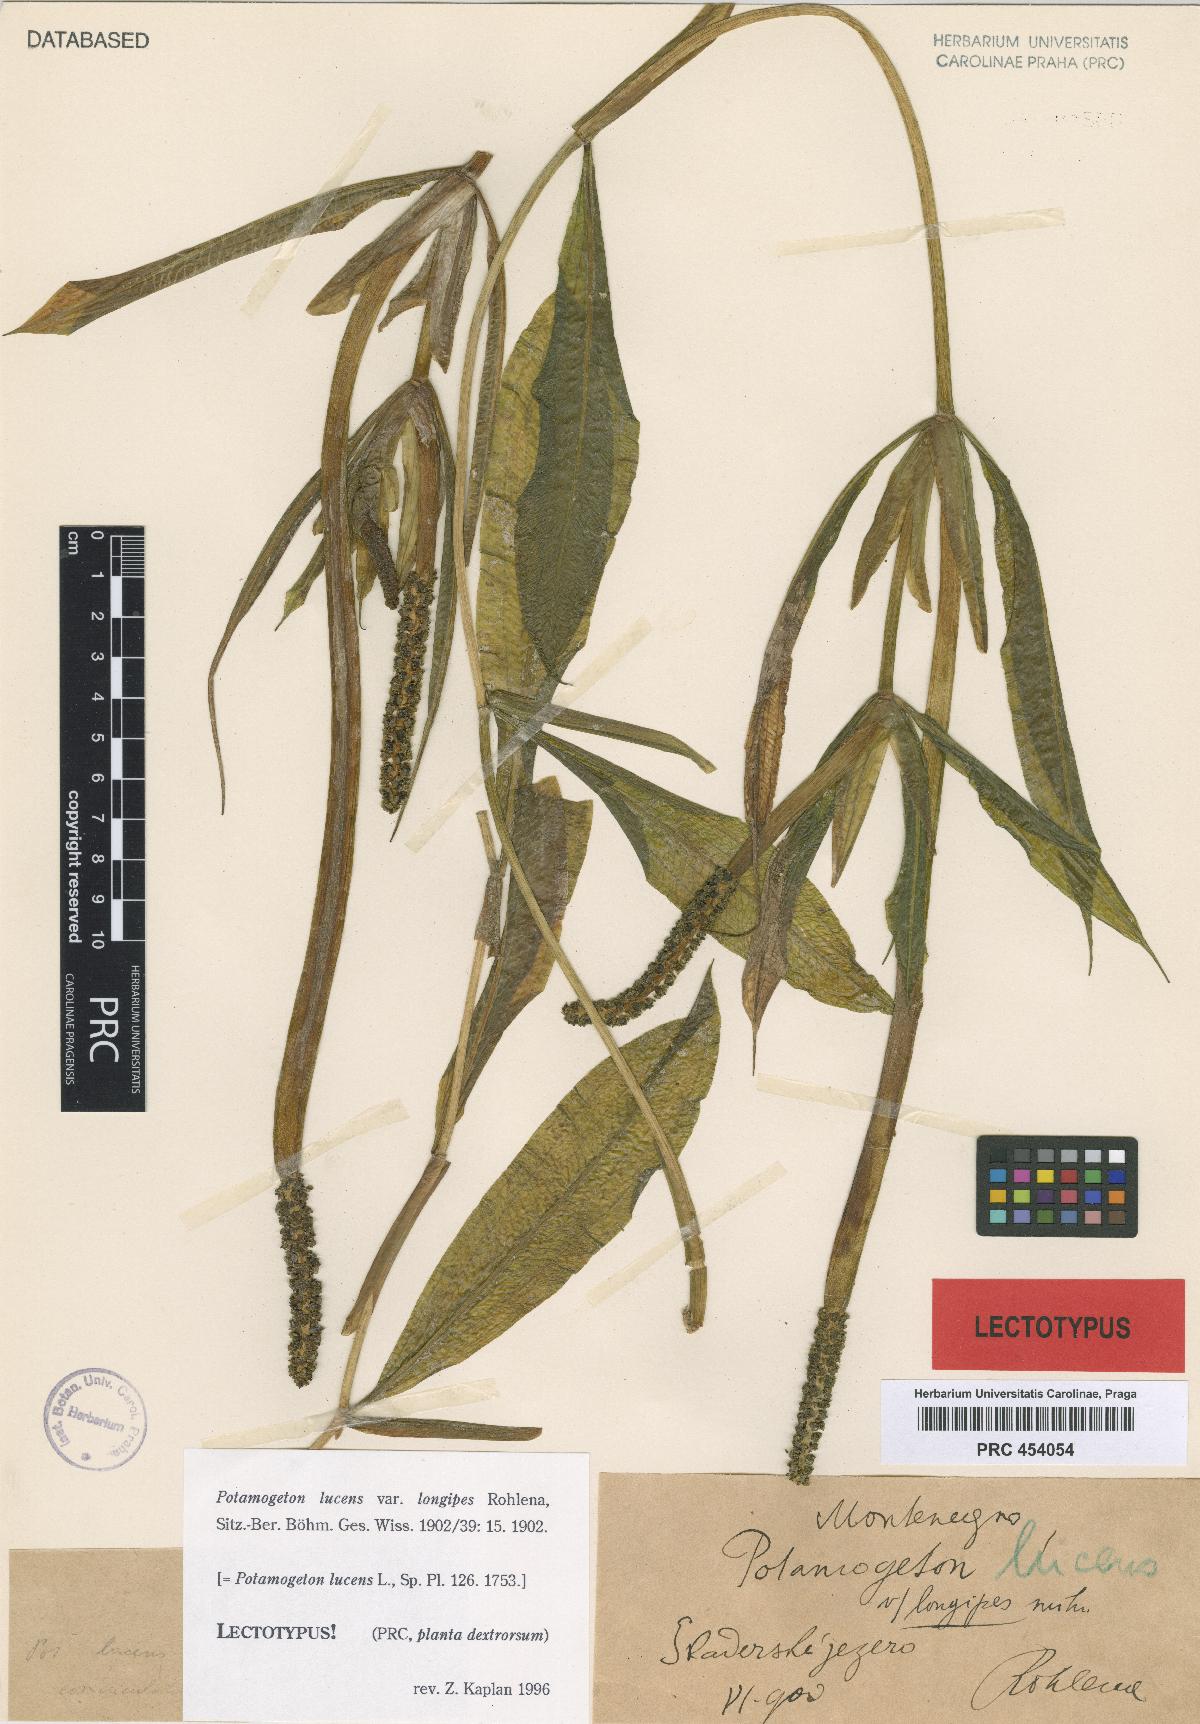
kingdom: Plantae
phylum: Tracheophyta
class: Liliopsida
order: Alismatales
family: Potamogetonaceae
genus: Potamogeton
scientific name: Potamogeton lucens
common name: Shining pondweed
